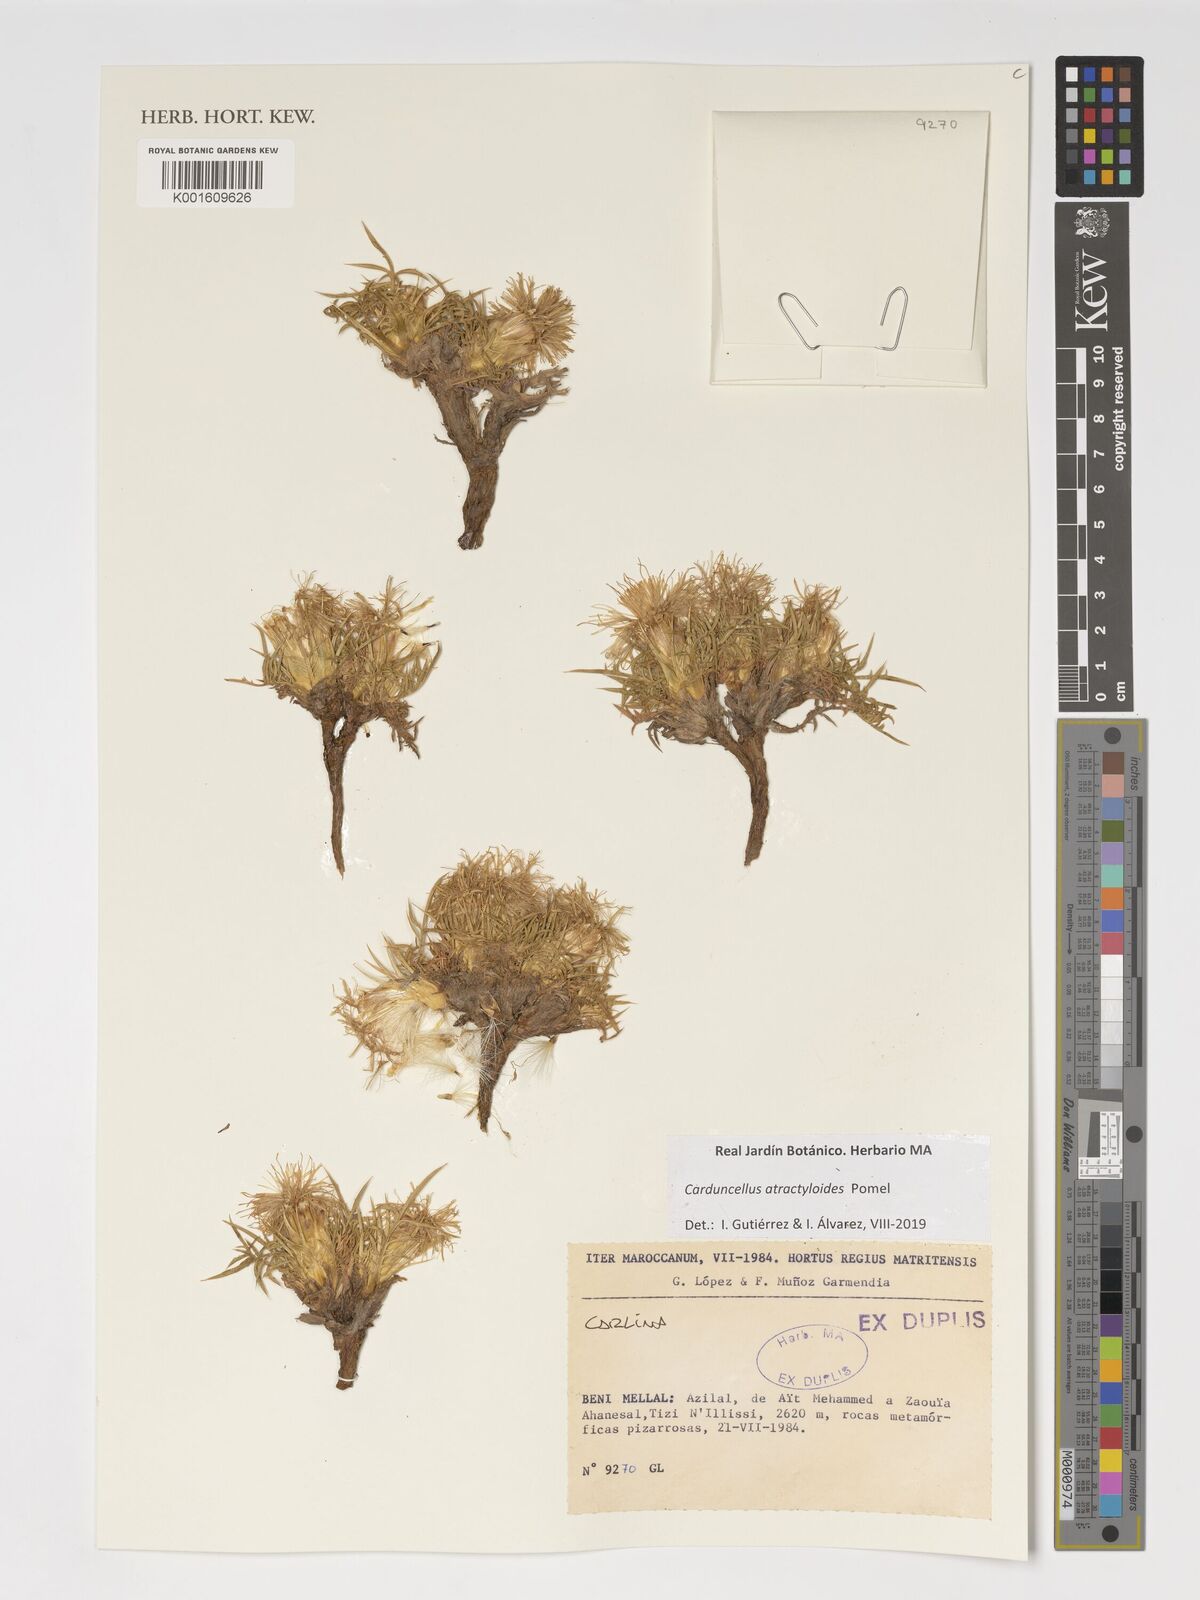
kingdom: Plantae
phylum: Tracheophyta
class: Magnoliopsida
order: Asterales
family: Asteraceae
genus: Carduncellus
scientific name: Carduncellus atractyloides
